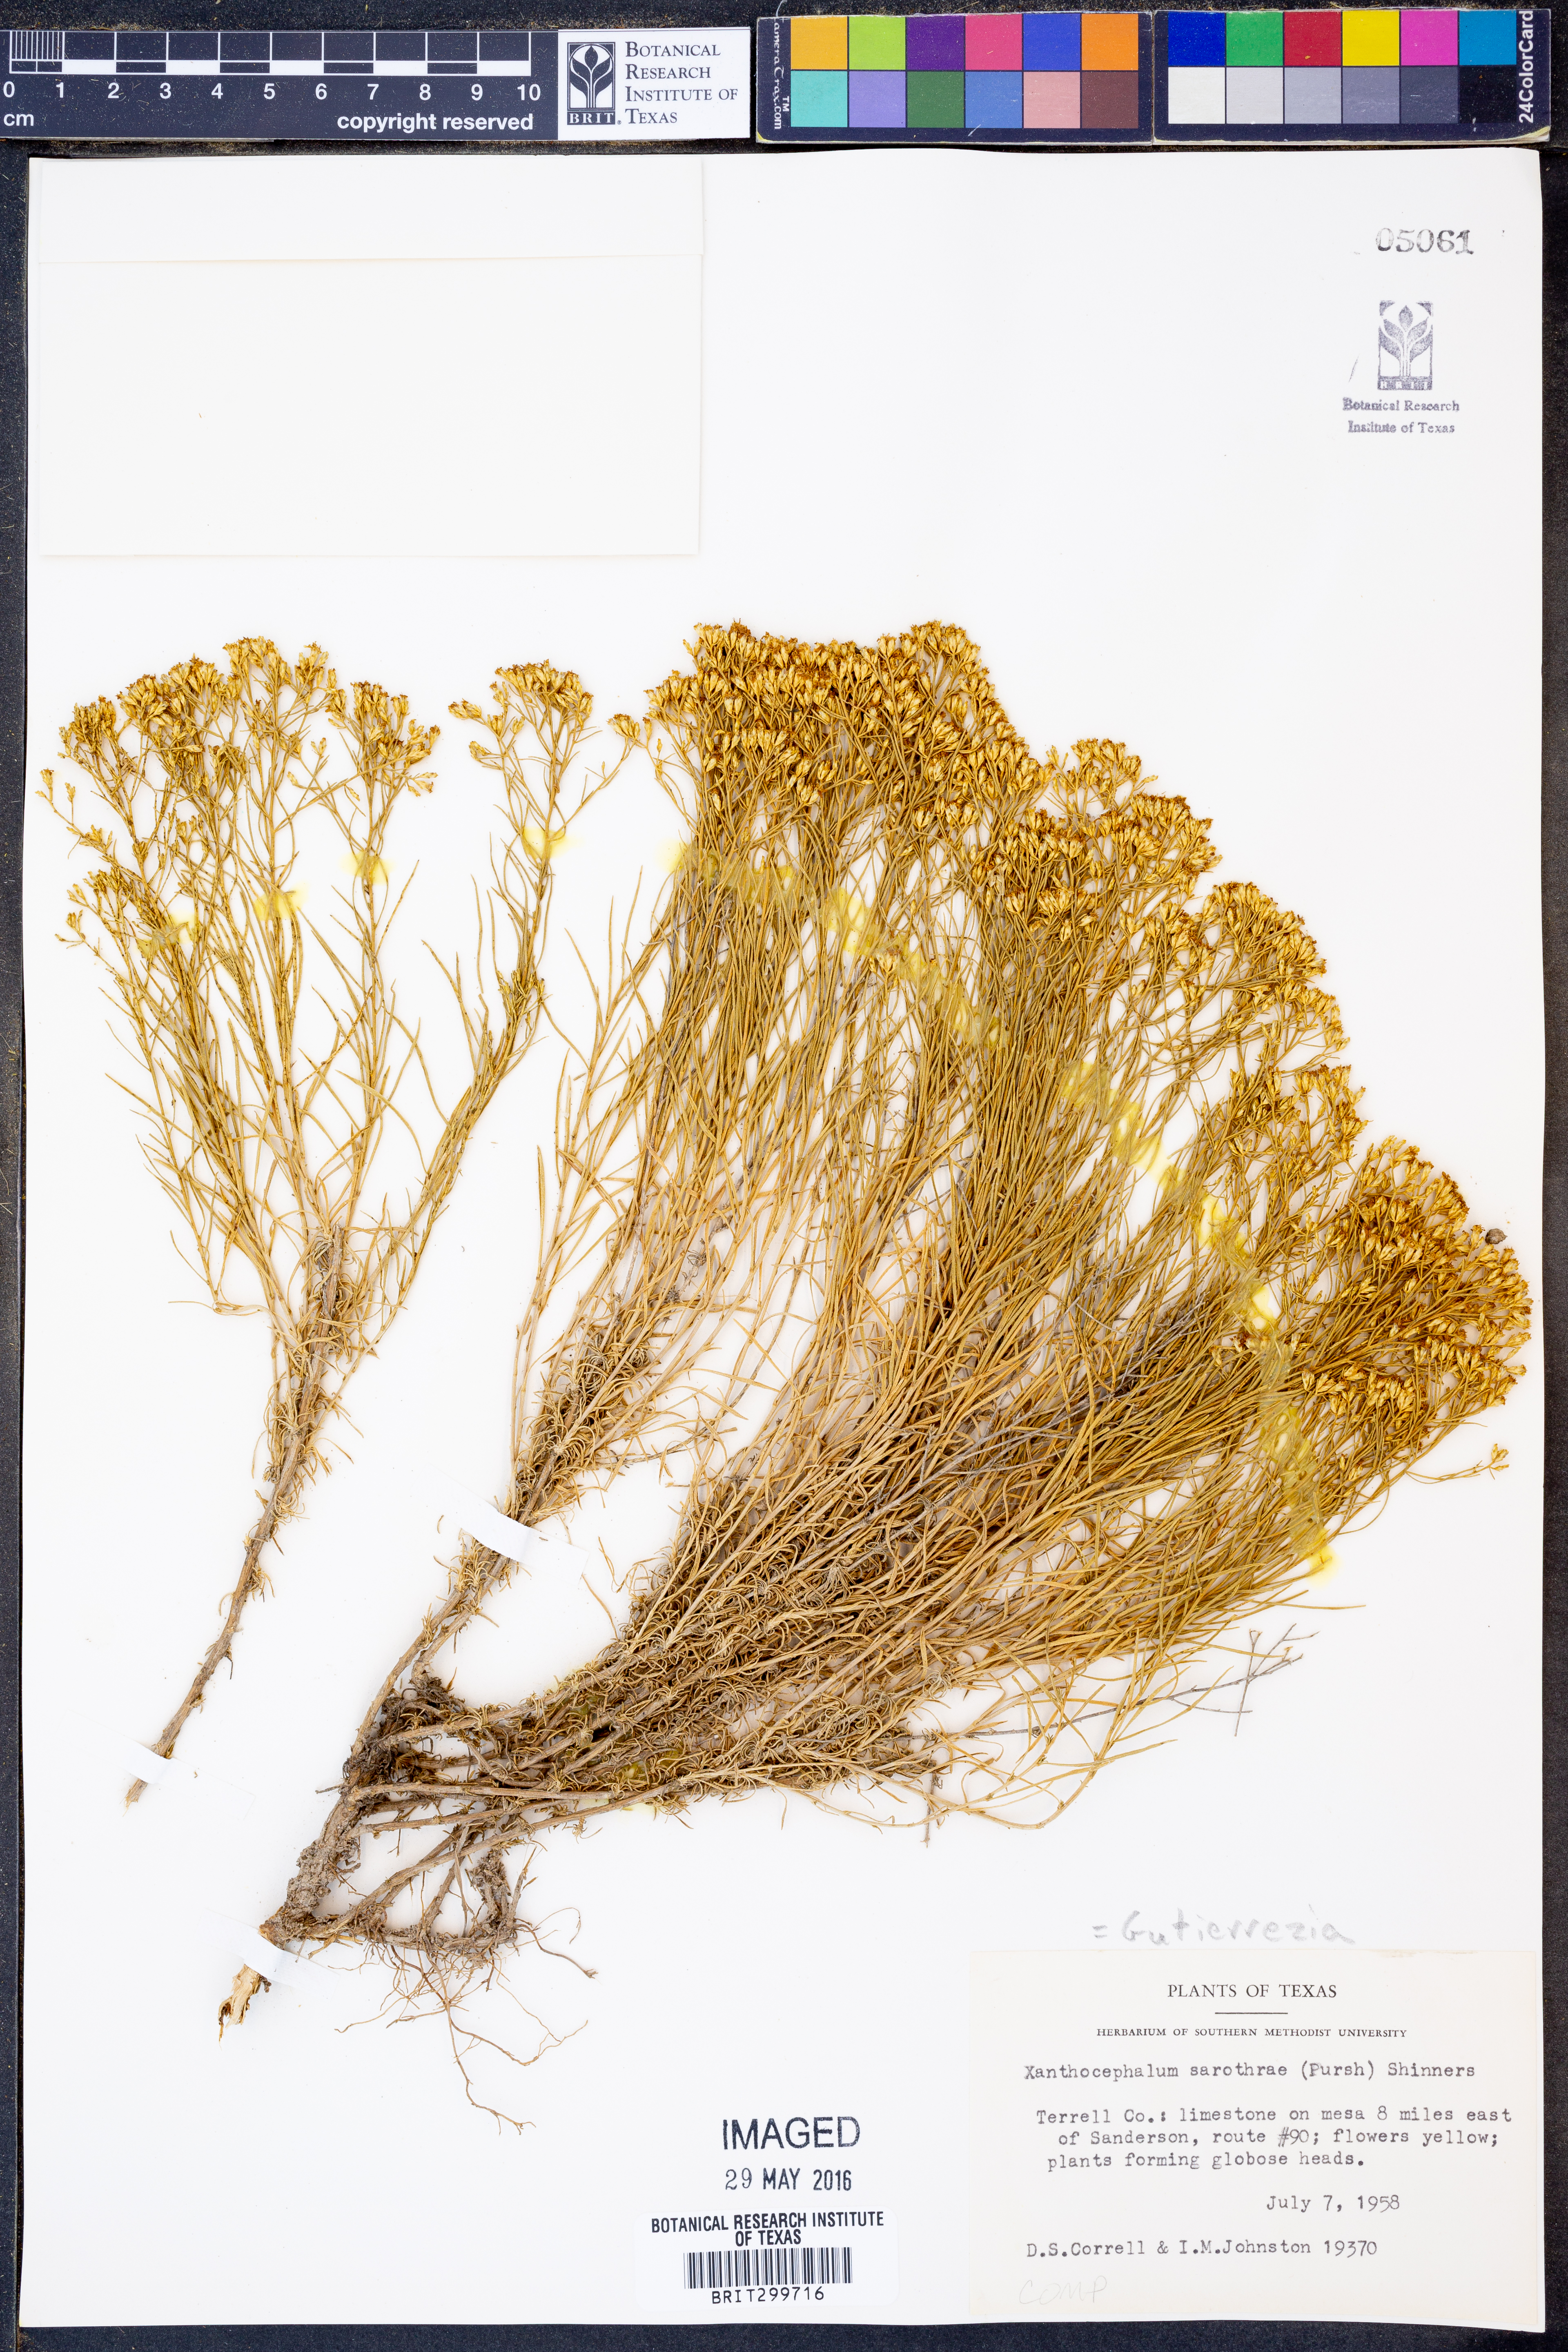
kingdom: Plantae
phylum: Tracheophyta
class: Magnoliopsida
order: Asterales
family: Asteraceae
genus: Gutierrezia
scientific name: Gutierrezia sarothrae
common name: Broom snakeweed
